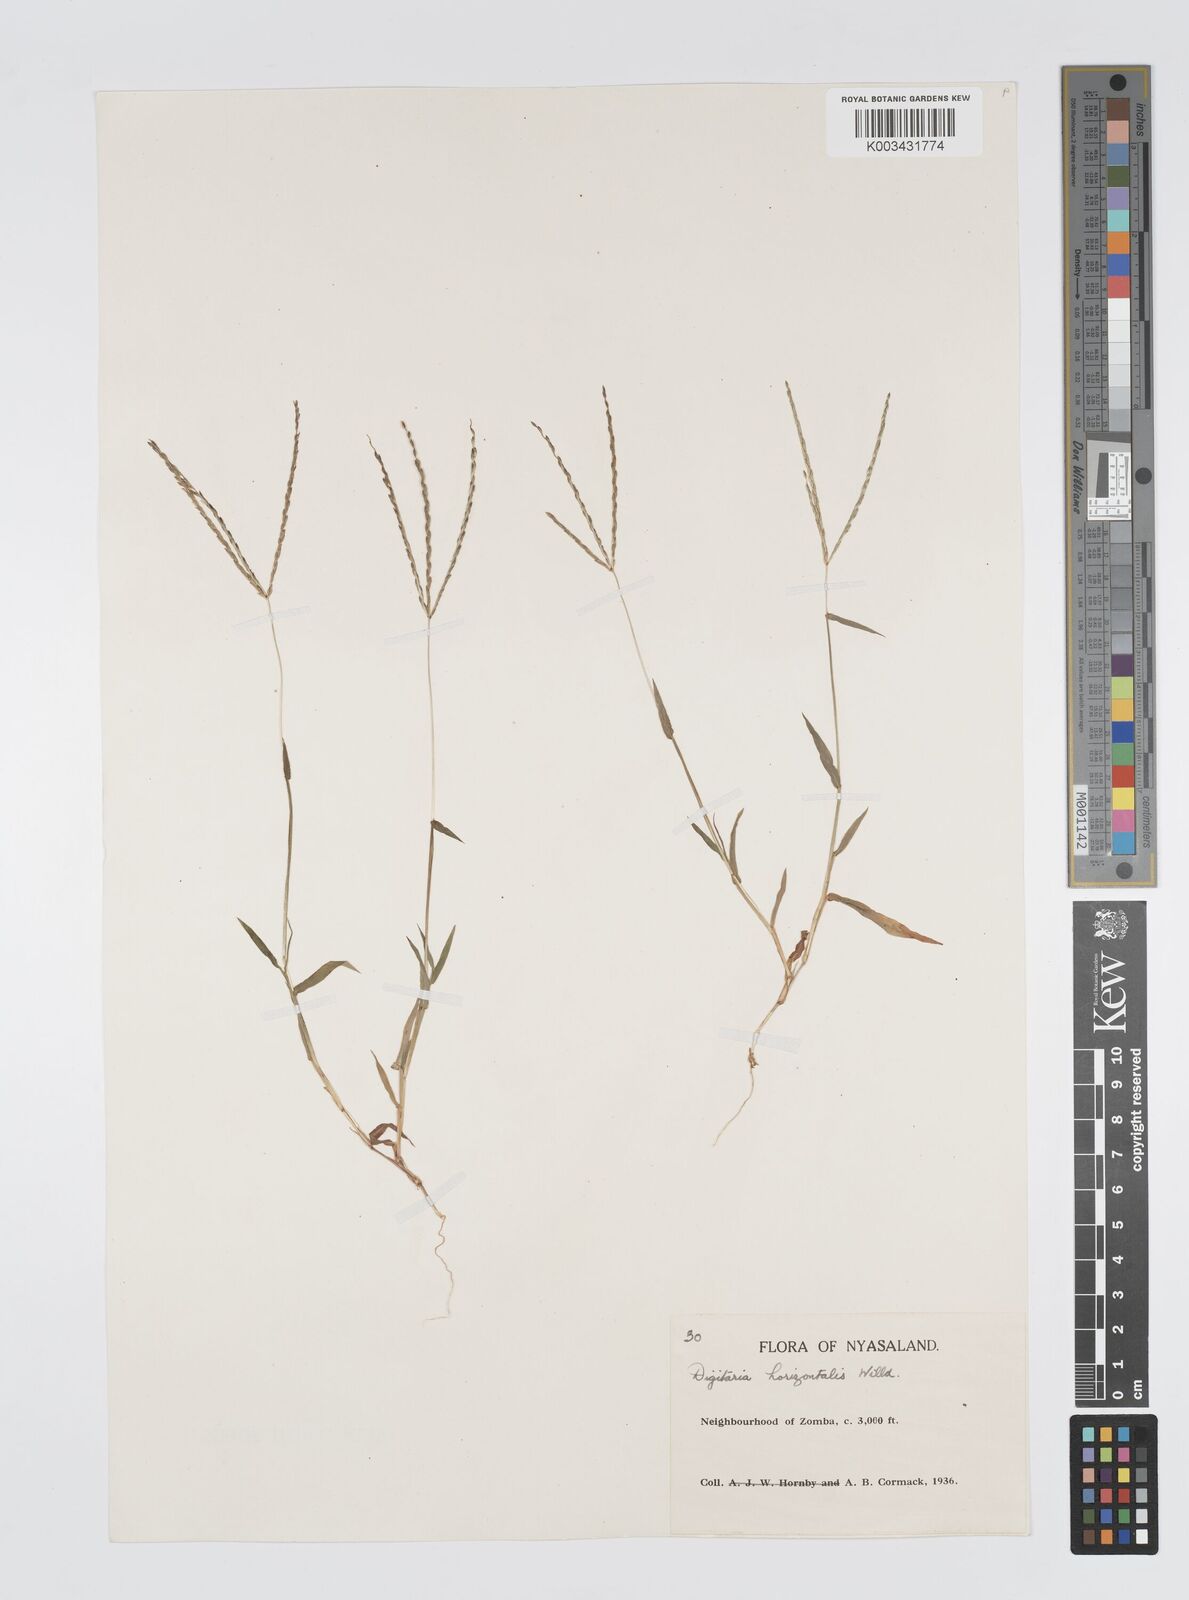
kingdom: Plantae
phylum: Tracheophyta
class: Liliopsida
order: Poales
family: Poaceae
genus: Digitaria
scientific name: Digitaria nuda
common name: Naked crabgrass
